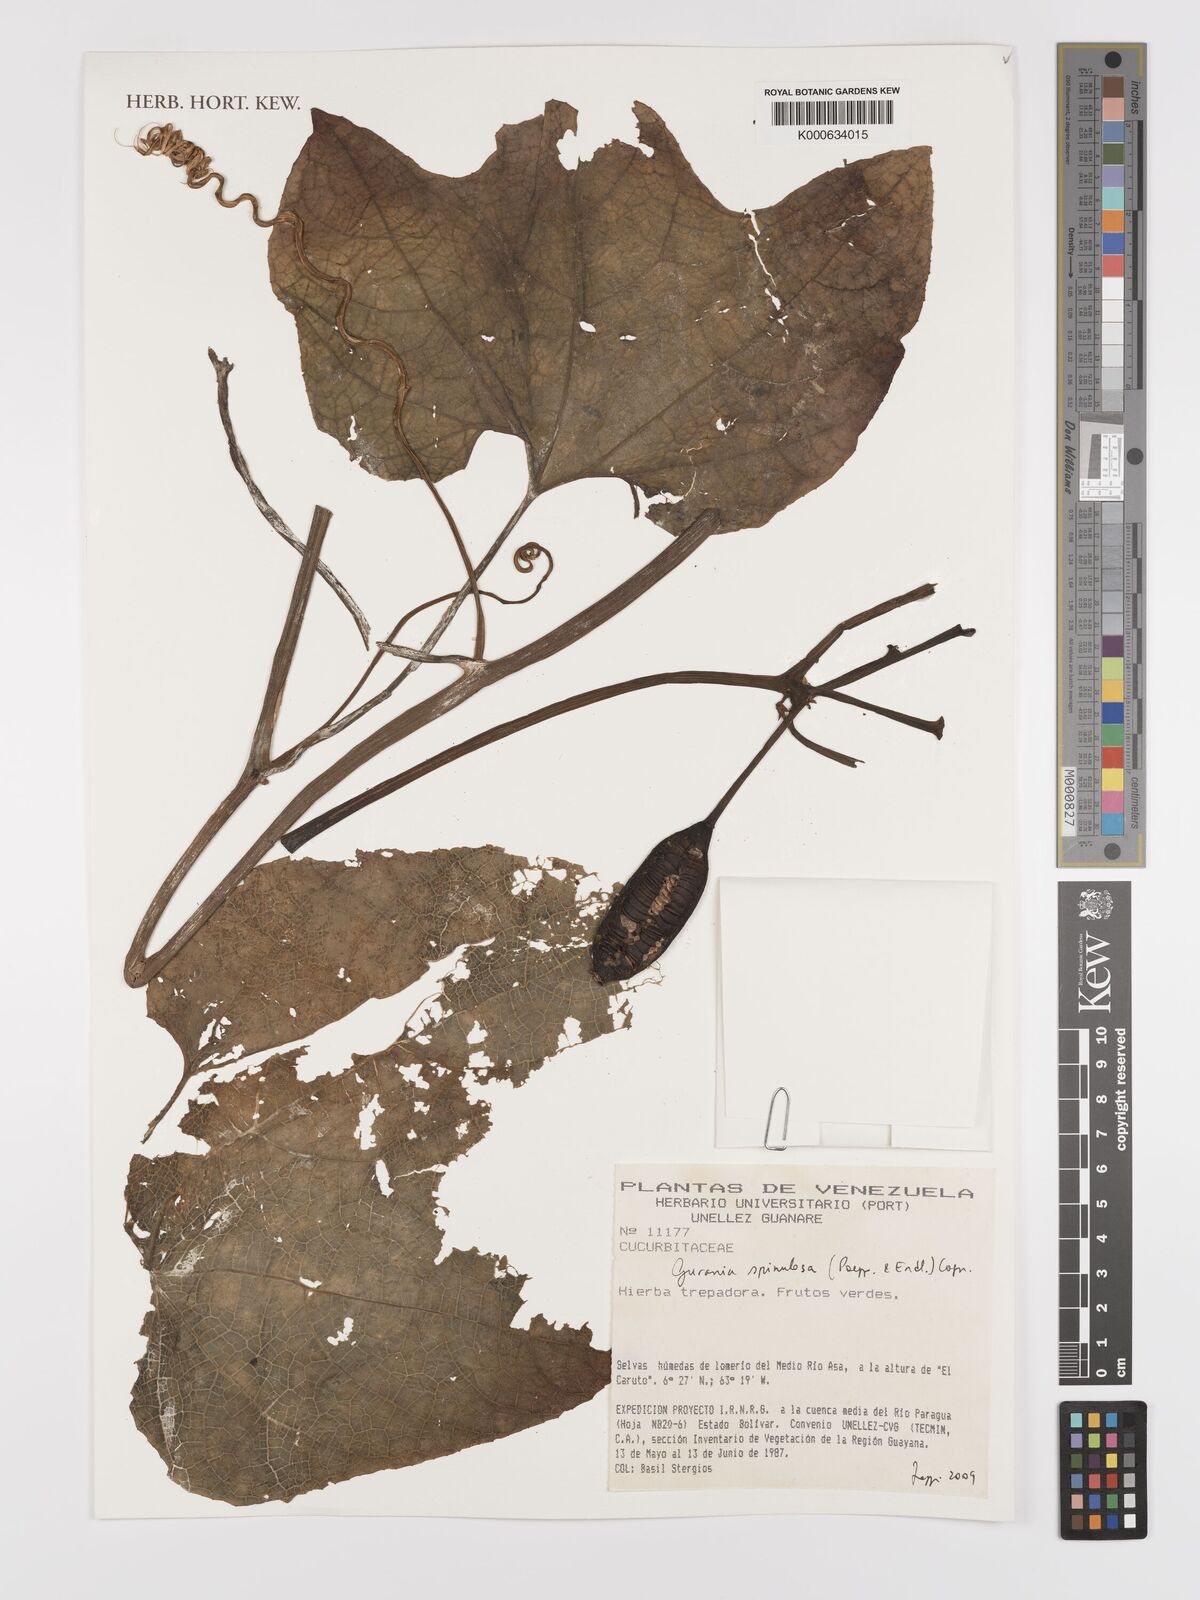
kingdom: Plantae
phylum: Tracheophyta
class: Magnoliopsida
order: Cucurbitales
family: Cucurbitaceae
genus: Gurania
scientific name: Gurania lobata
